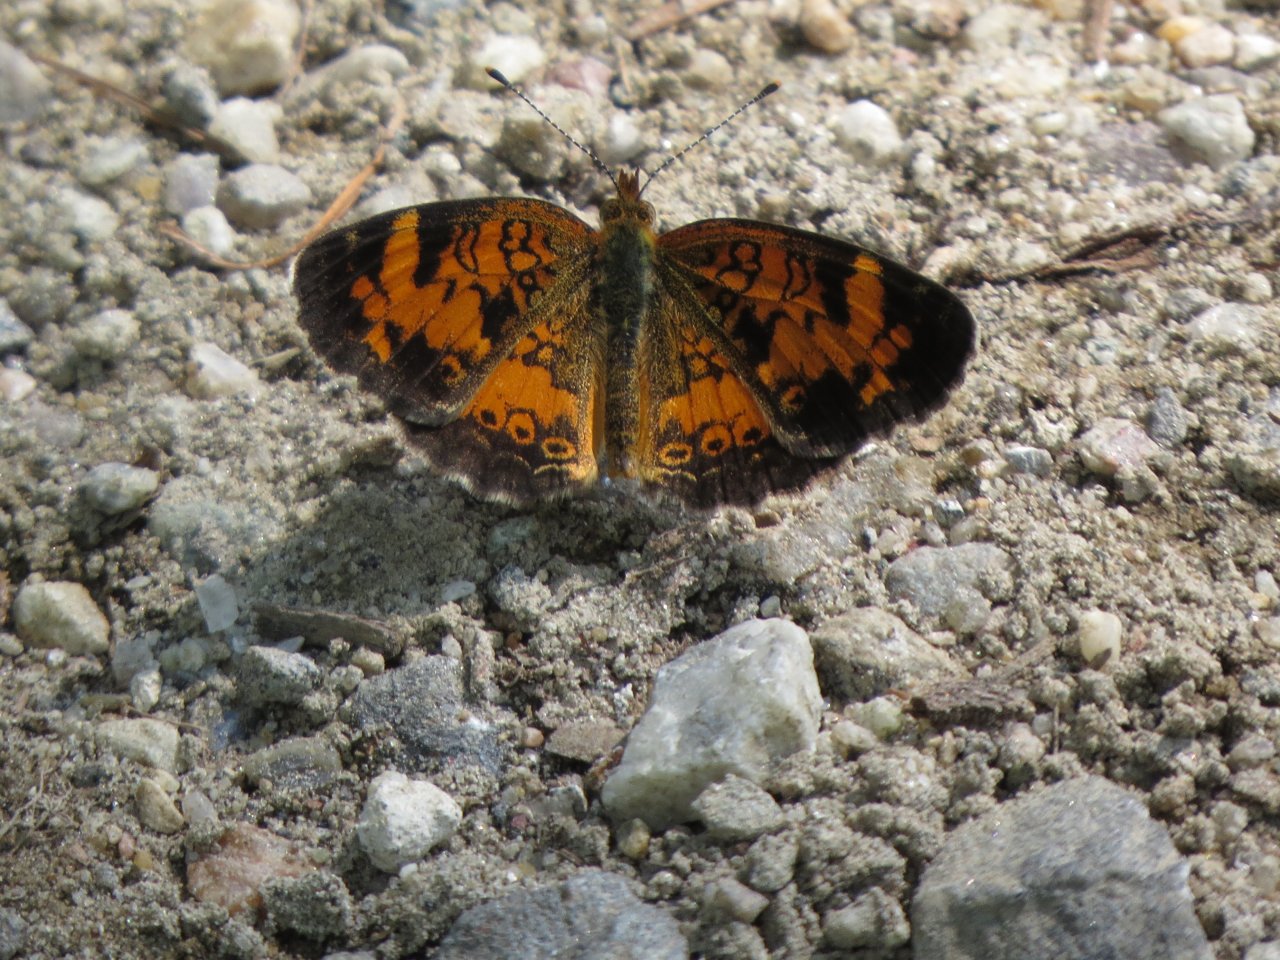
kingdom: Animalia
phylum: Arthropoda
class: Insecta
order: Lepidoptera
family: Nymphalidae
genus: Phyciodes
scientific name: Phyciodes tharos
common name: Pearl Crescent
